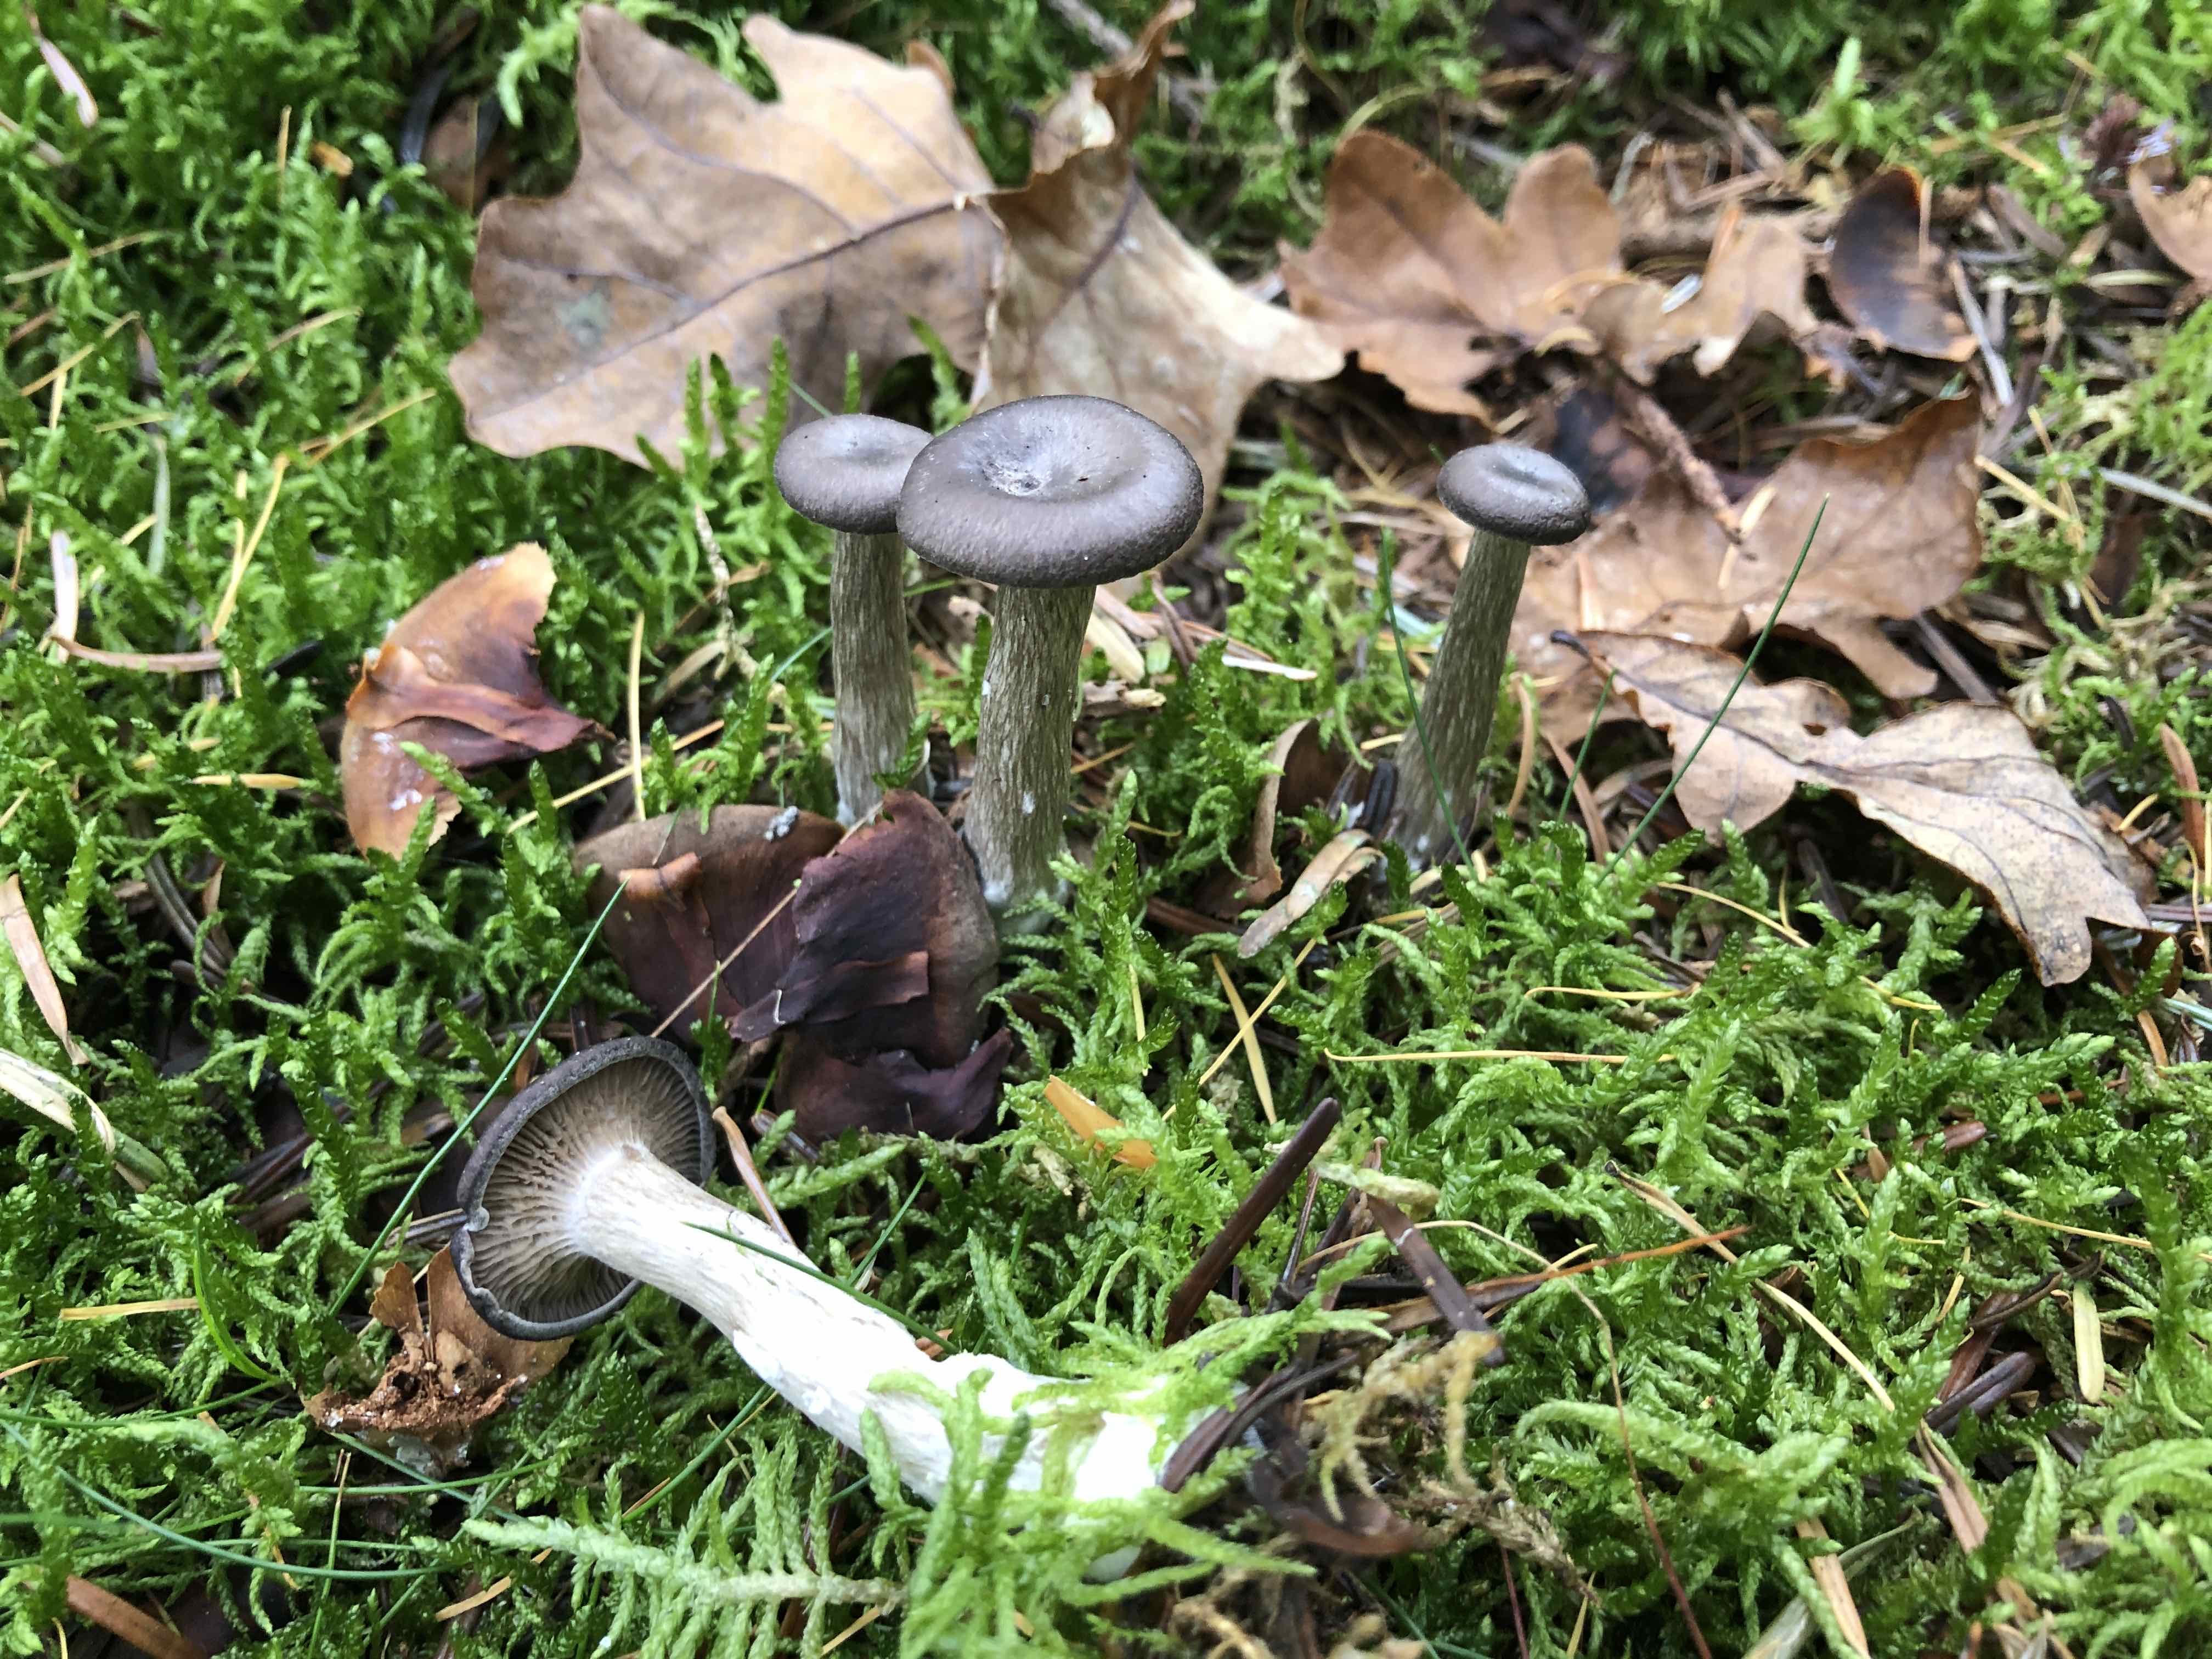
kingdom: Fungi
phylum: Basidiomycota
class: Agaricomycetes
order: Agaricales
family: Pseudoclitocybaceae
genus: Pseudoclitocybe
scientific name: Pseudoclitocybe cyathiformis
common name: almindelig bægertragthat
